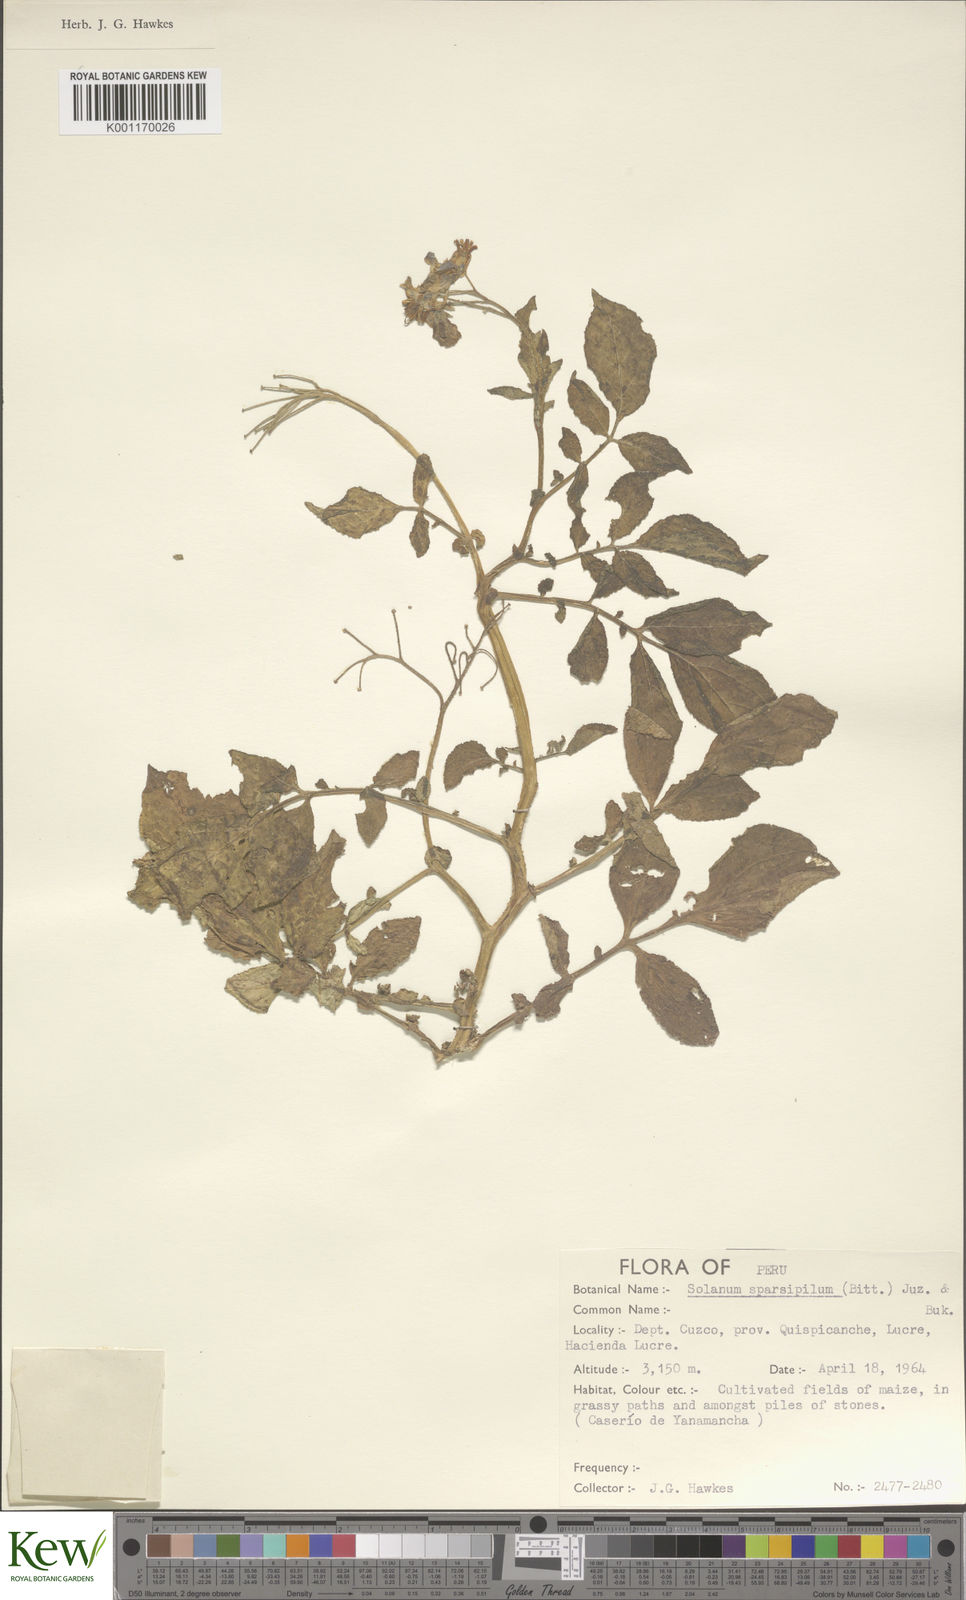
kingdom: Plantae
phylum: Tracheophyta
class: Magnoliopsida
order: Solanales
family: Solanaceae
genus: Solanum
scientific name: Solanum brevicaule
